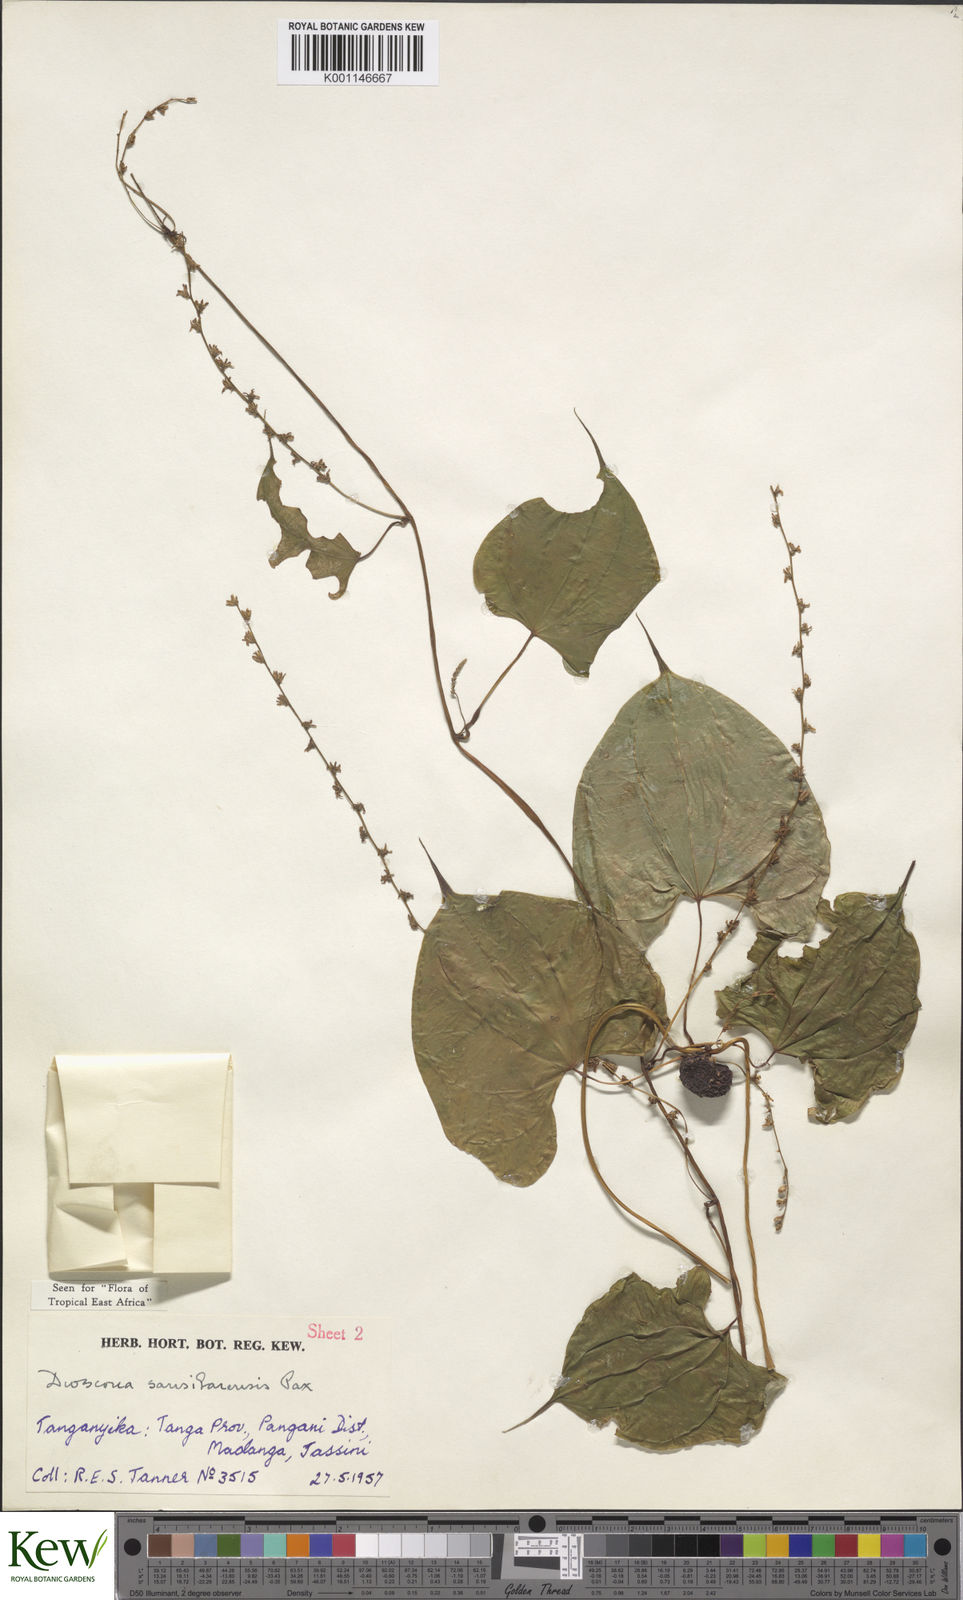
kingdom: Plantae
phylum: Tracheophyta
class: Liliopsida
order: Dioscoreales
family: Dioscoreaceae
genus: Dioscorea
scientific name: Dioscorea sansibarensis
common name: Zanzibar yam
